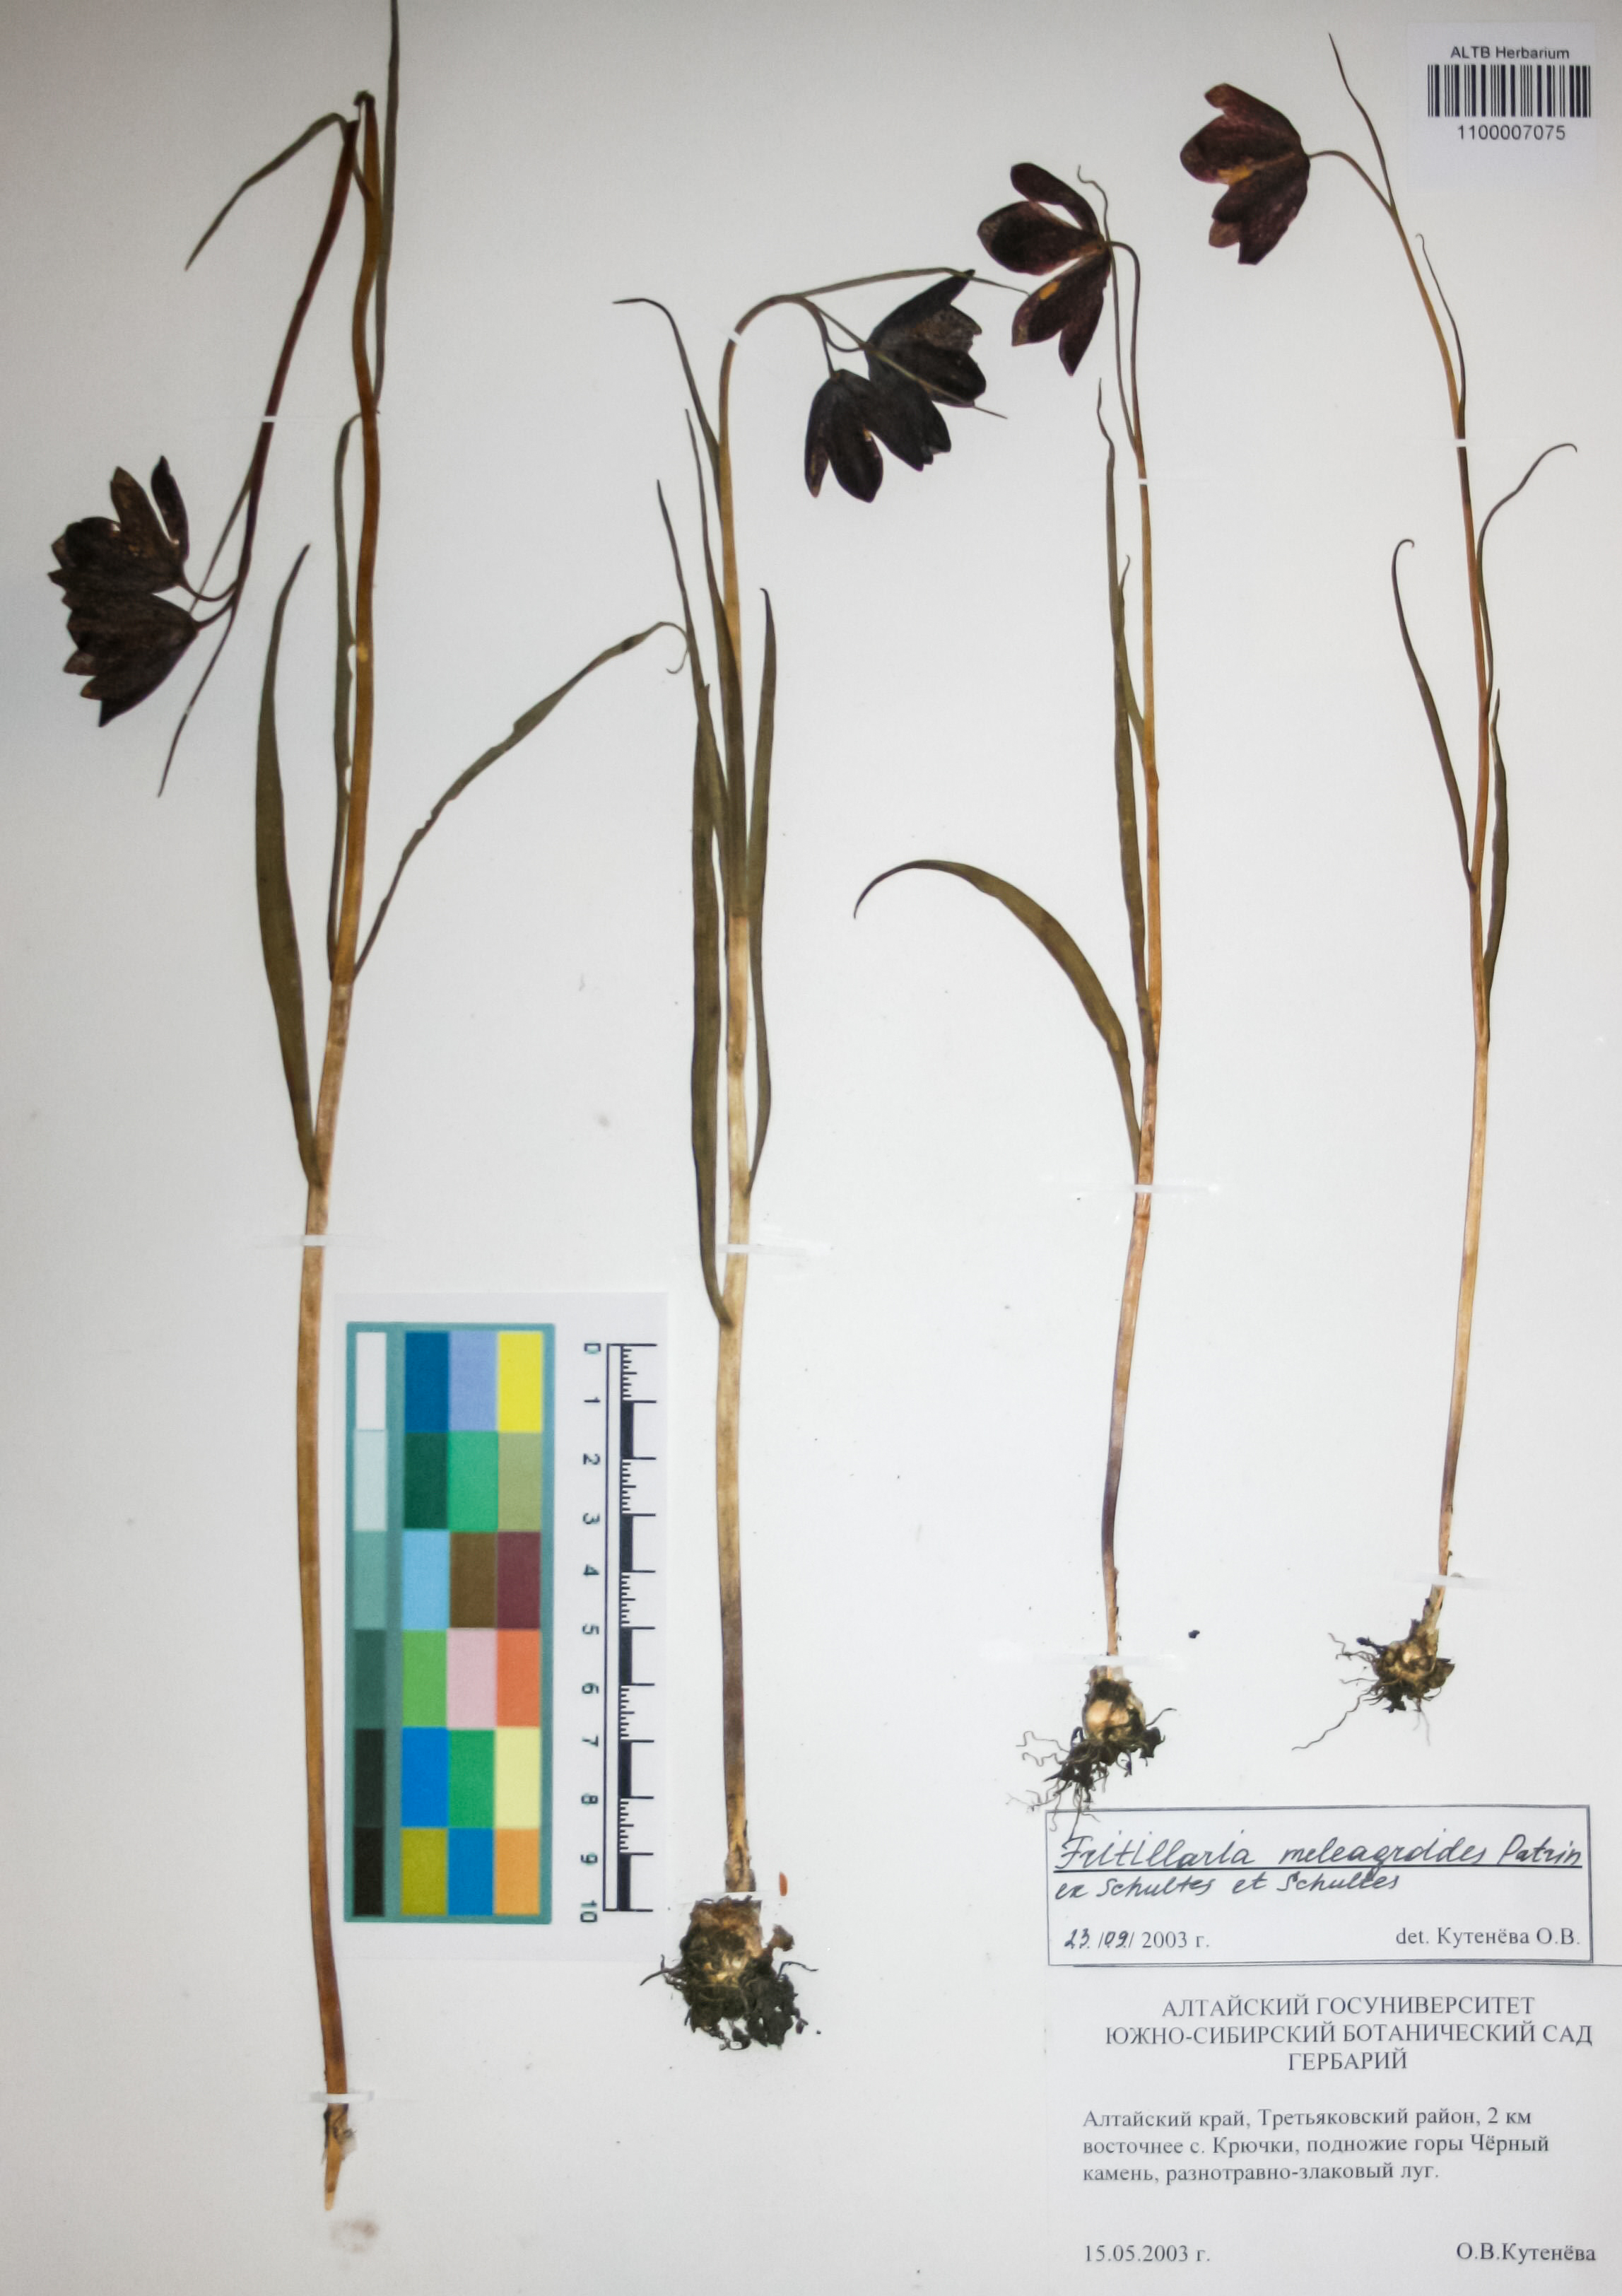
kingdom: Plantae
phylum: Tracheophyta
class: Liliopsida
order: Liliales
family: Liliaceae
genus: Fritillaria
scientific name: Fritillaria meleagroides
